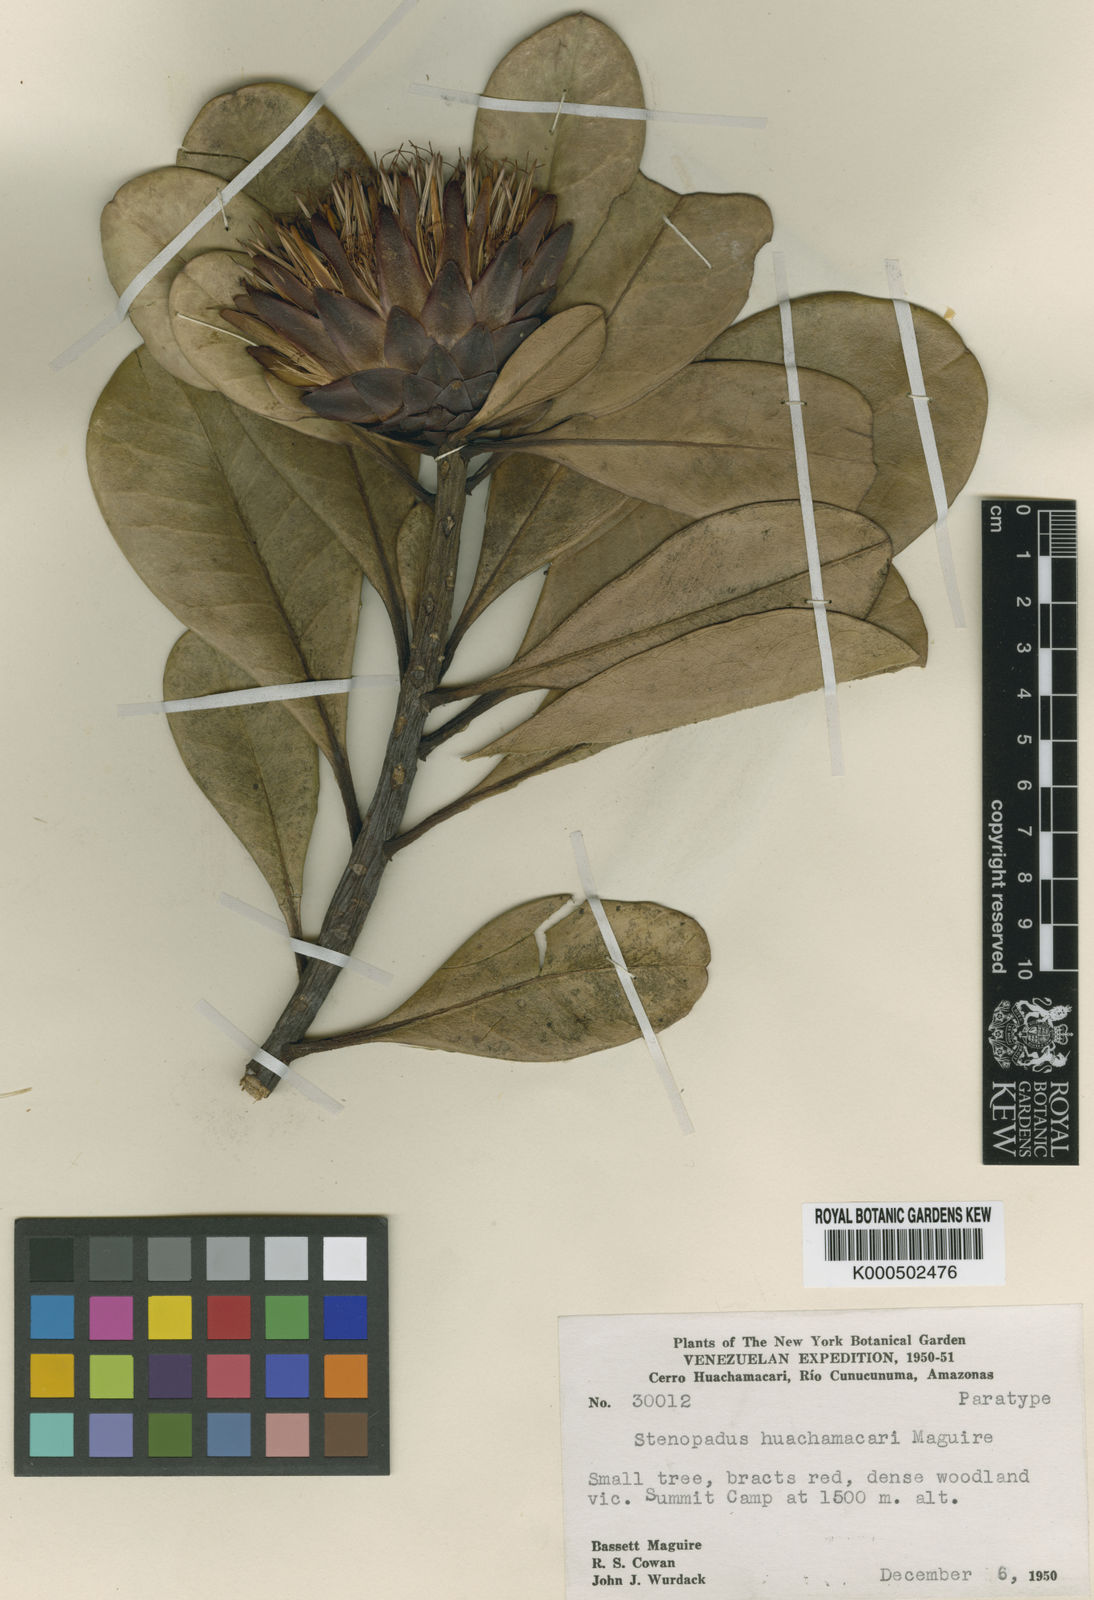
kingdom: Plantae
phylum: Tracheophyta
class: Magnoliopsida
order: Asterales
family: Asteraceae
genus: Stenopadus
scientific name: Stenopadus huachamacari
